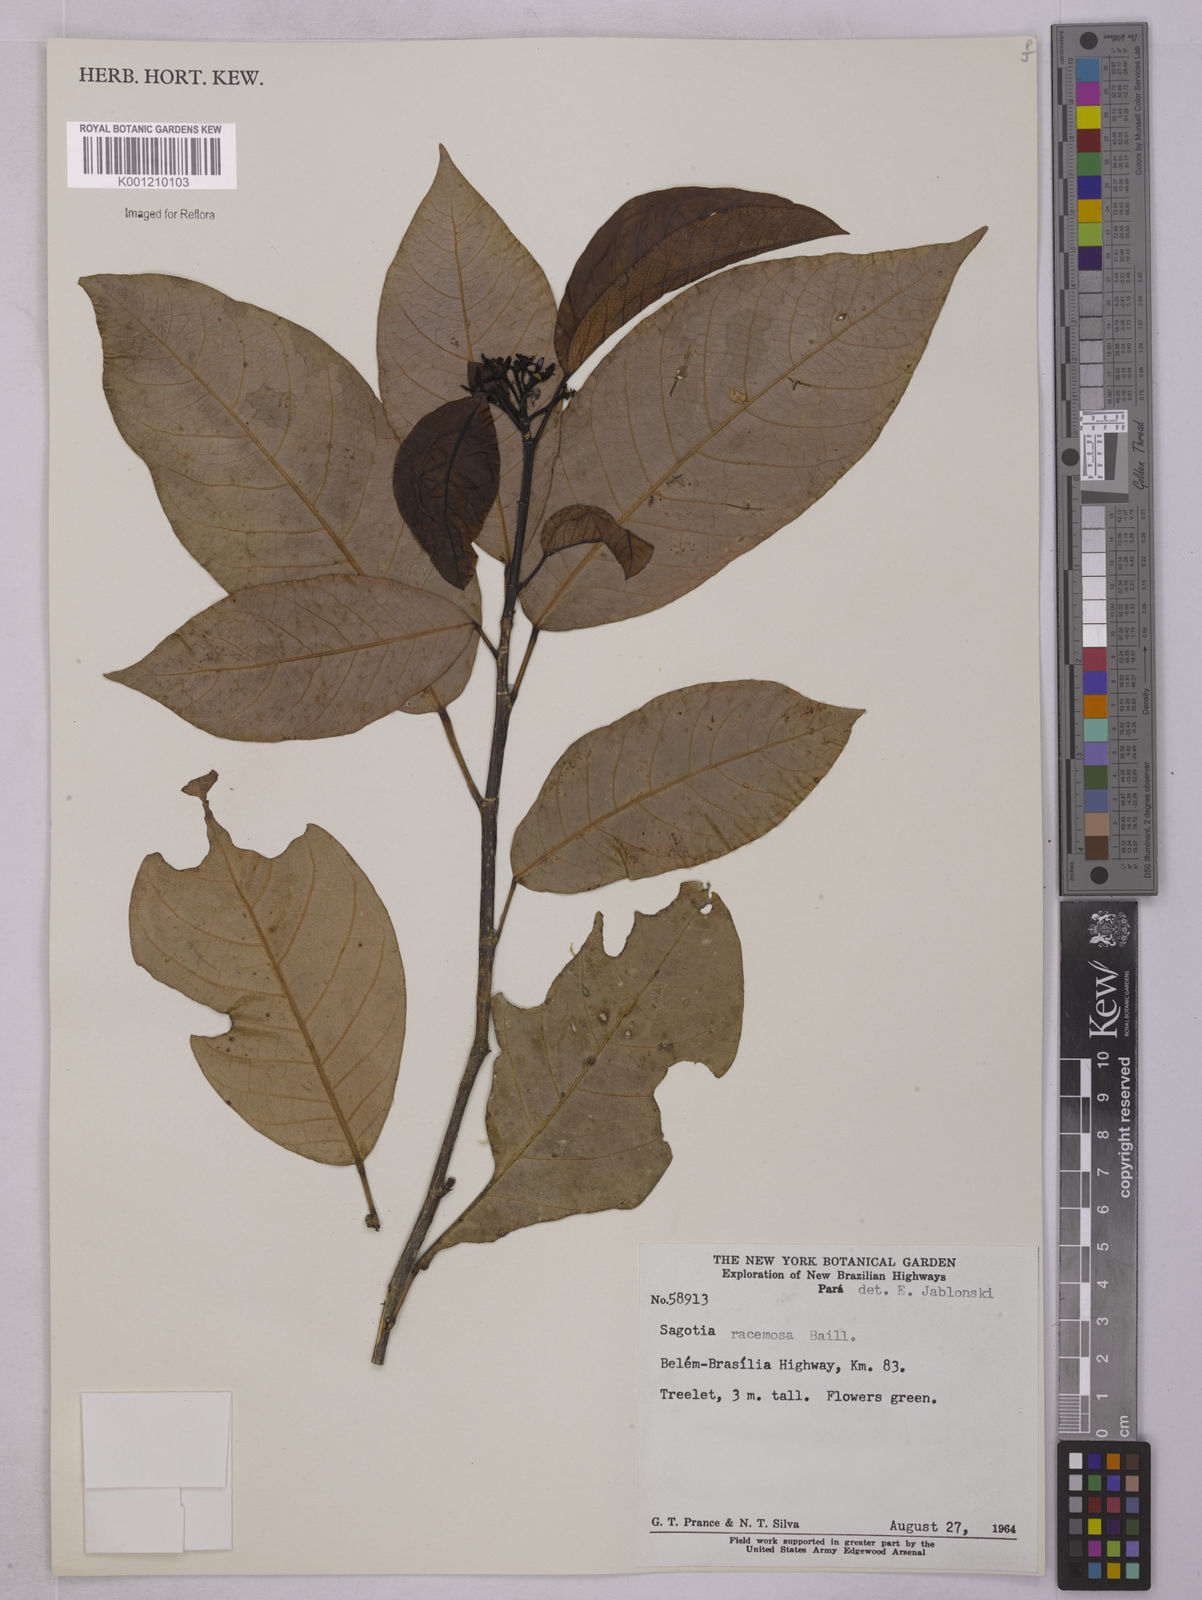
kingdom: Plantae
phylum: Tracheophyta
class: Magnoliopsida
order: Malpighiales
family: Euphorbiaceae
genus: Sagotia
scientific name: Sagotia racemosa
